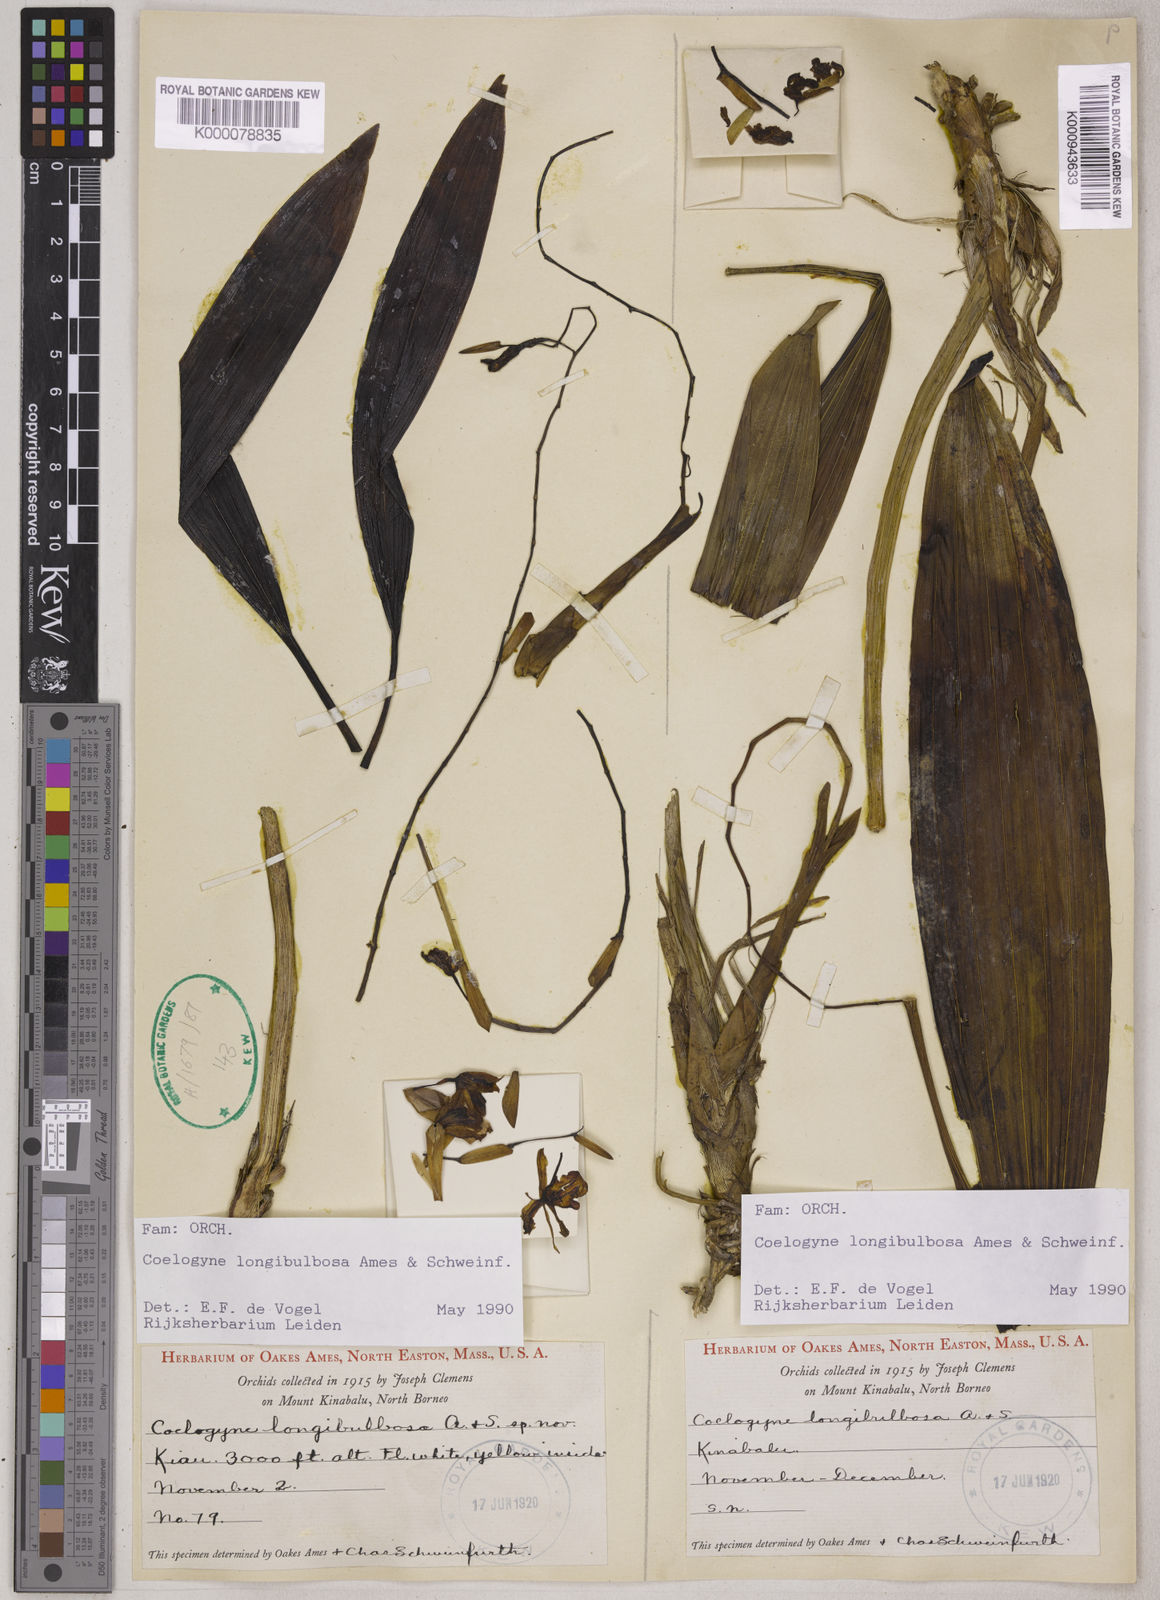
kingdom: Plantae
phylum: Tracheophyta
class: Liliopsida
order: Asparagales
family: Orchidaceae
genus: Coelogyne
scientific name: Coelogyne longibulbosa
